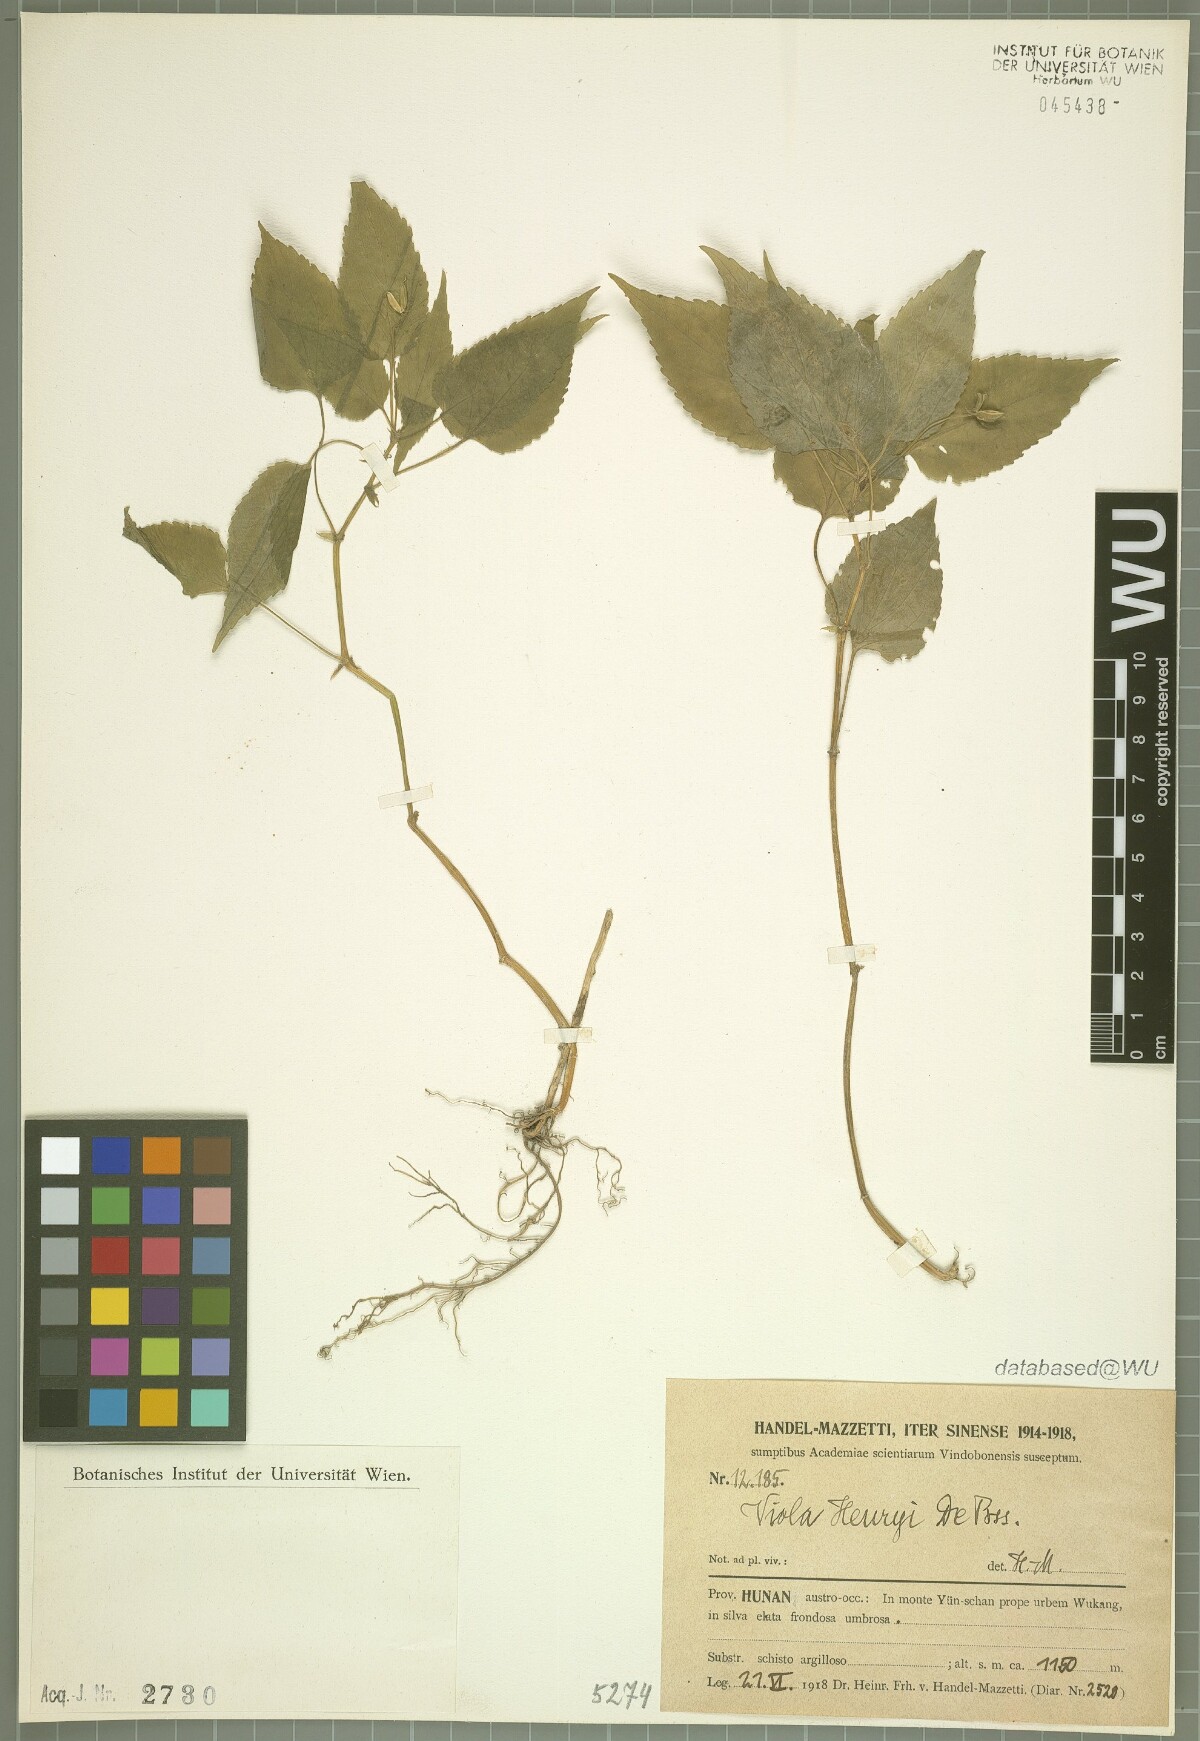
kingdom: Plantae
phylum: Tracheophyta
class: Magnoliopsida
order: Malpighiales
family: Violaceae
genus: Viola
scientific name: Viola henryi
